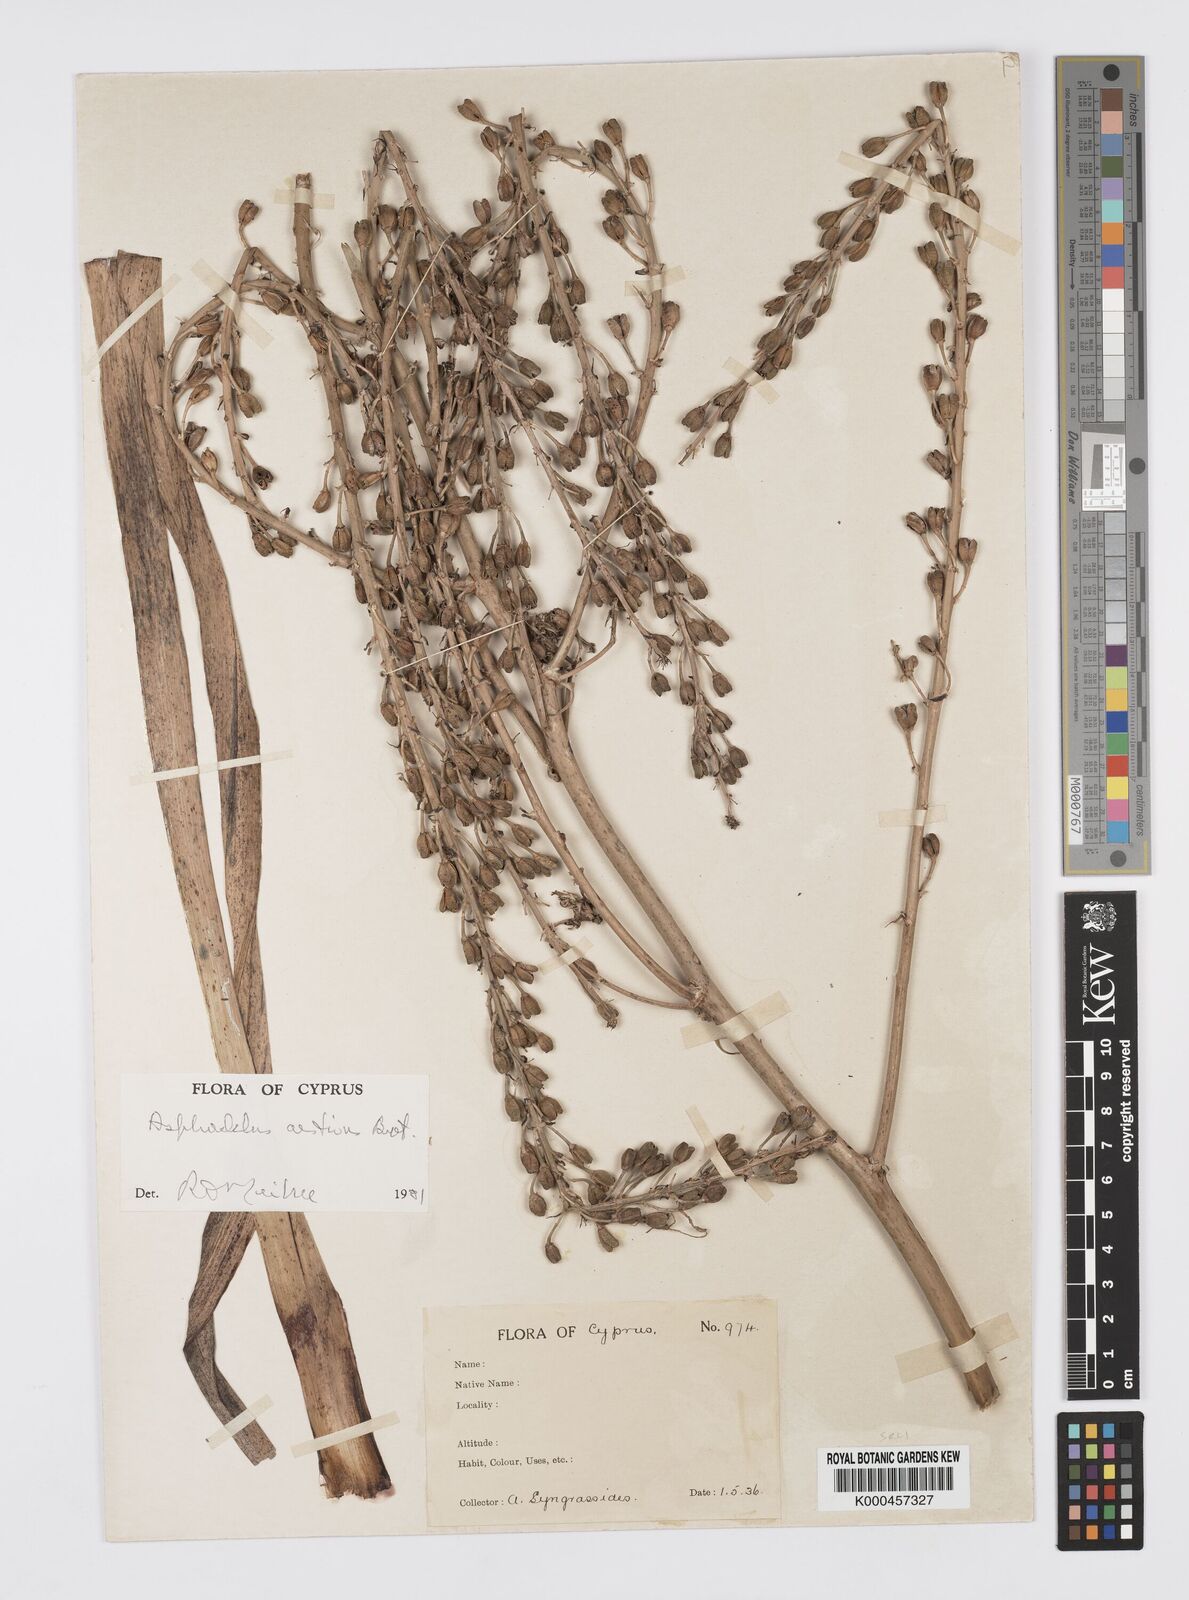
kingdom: Plantae
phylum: Tracheophyta
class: Liliopsida
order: Asparagales
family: Asphodelaceae
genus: Asphodelus
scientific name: Asphodelus aestivus
